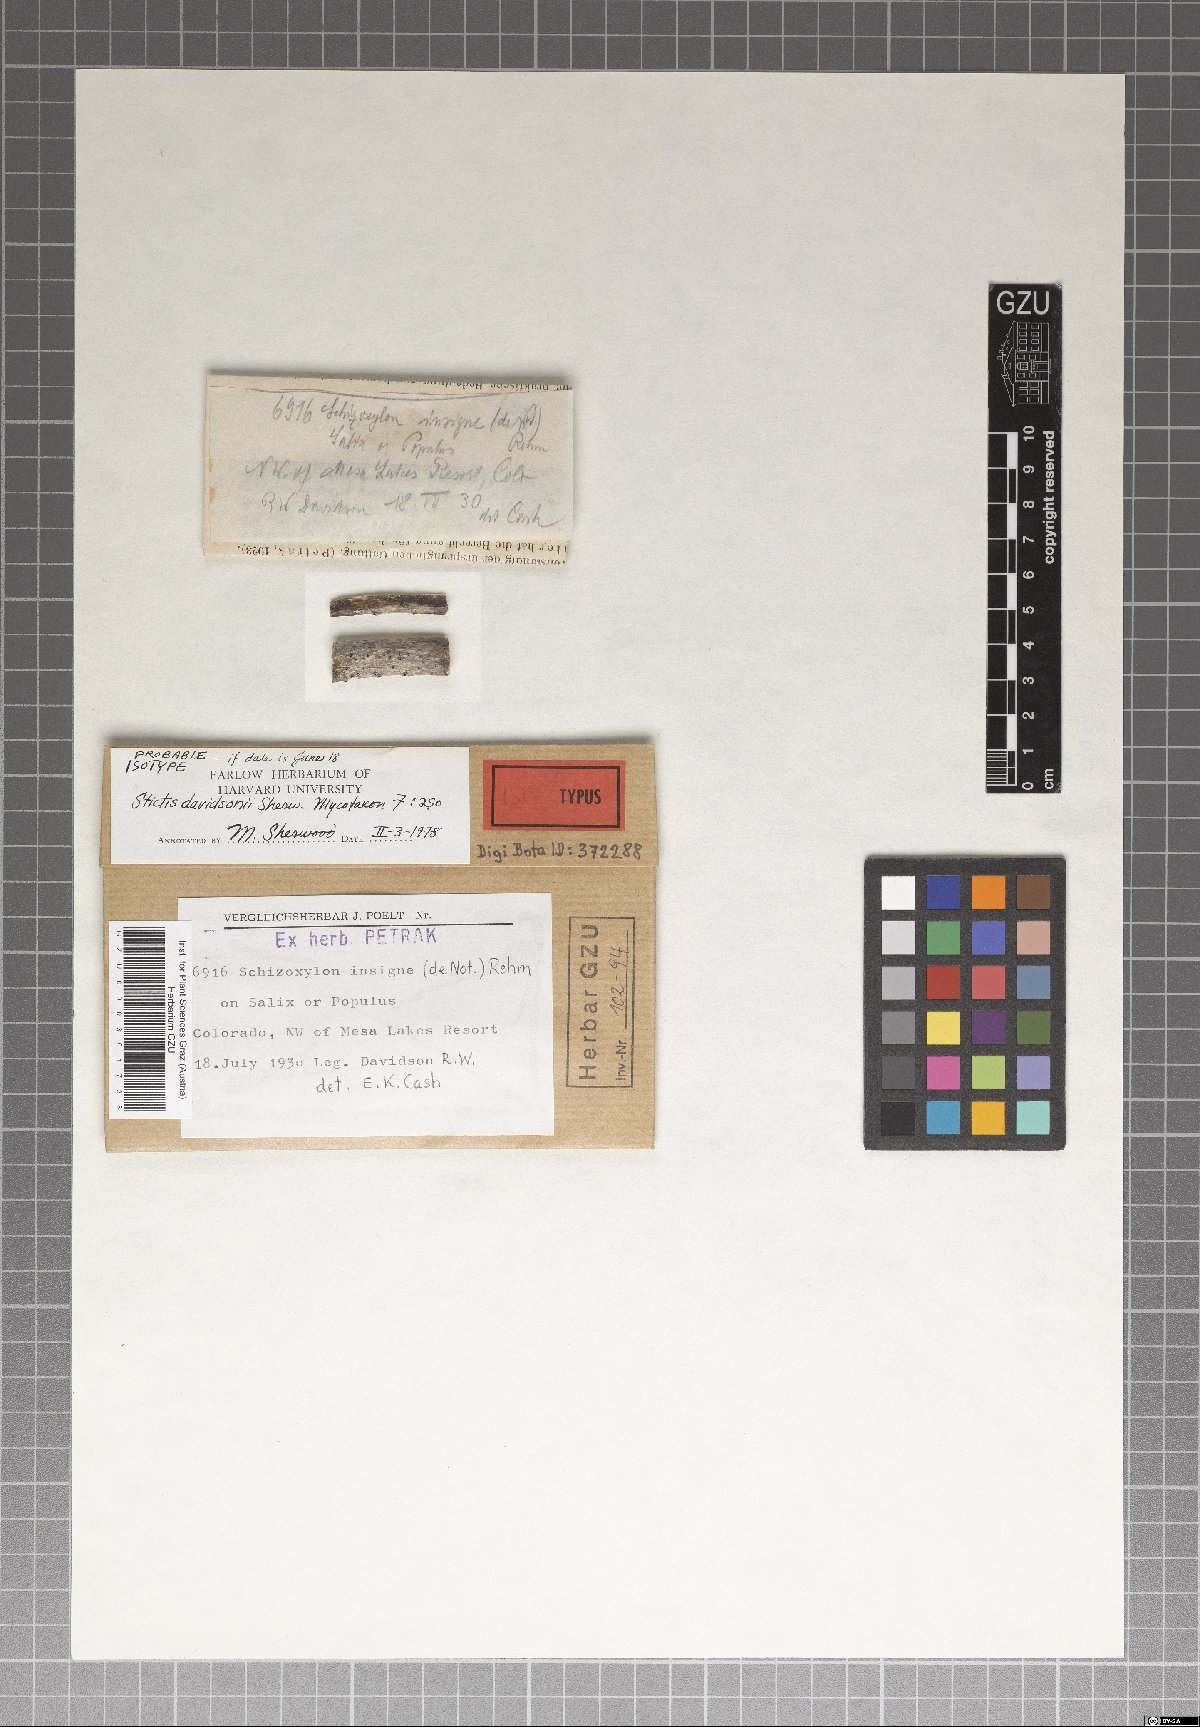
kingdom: Fungi
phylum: Ascomycota
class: Lecanoromycetes
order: Ostropales
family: Stictidaceae
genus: Stictis
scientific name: Stictis
